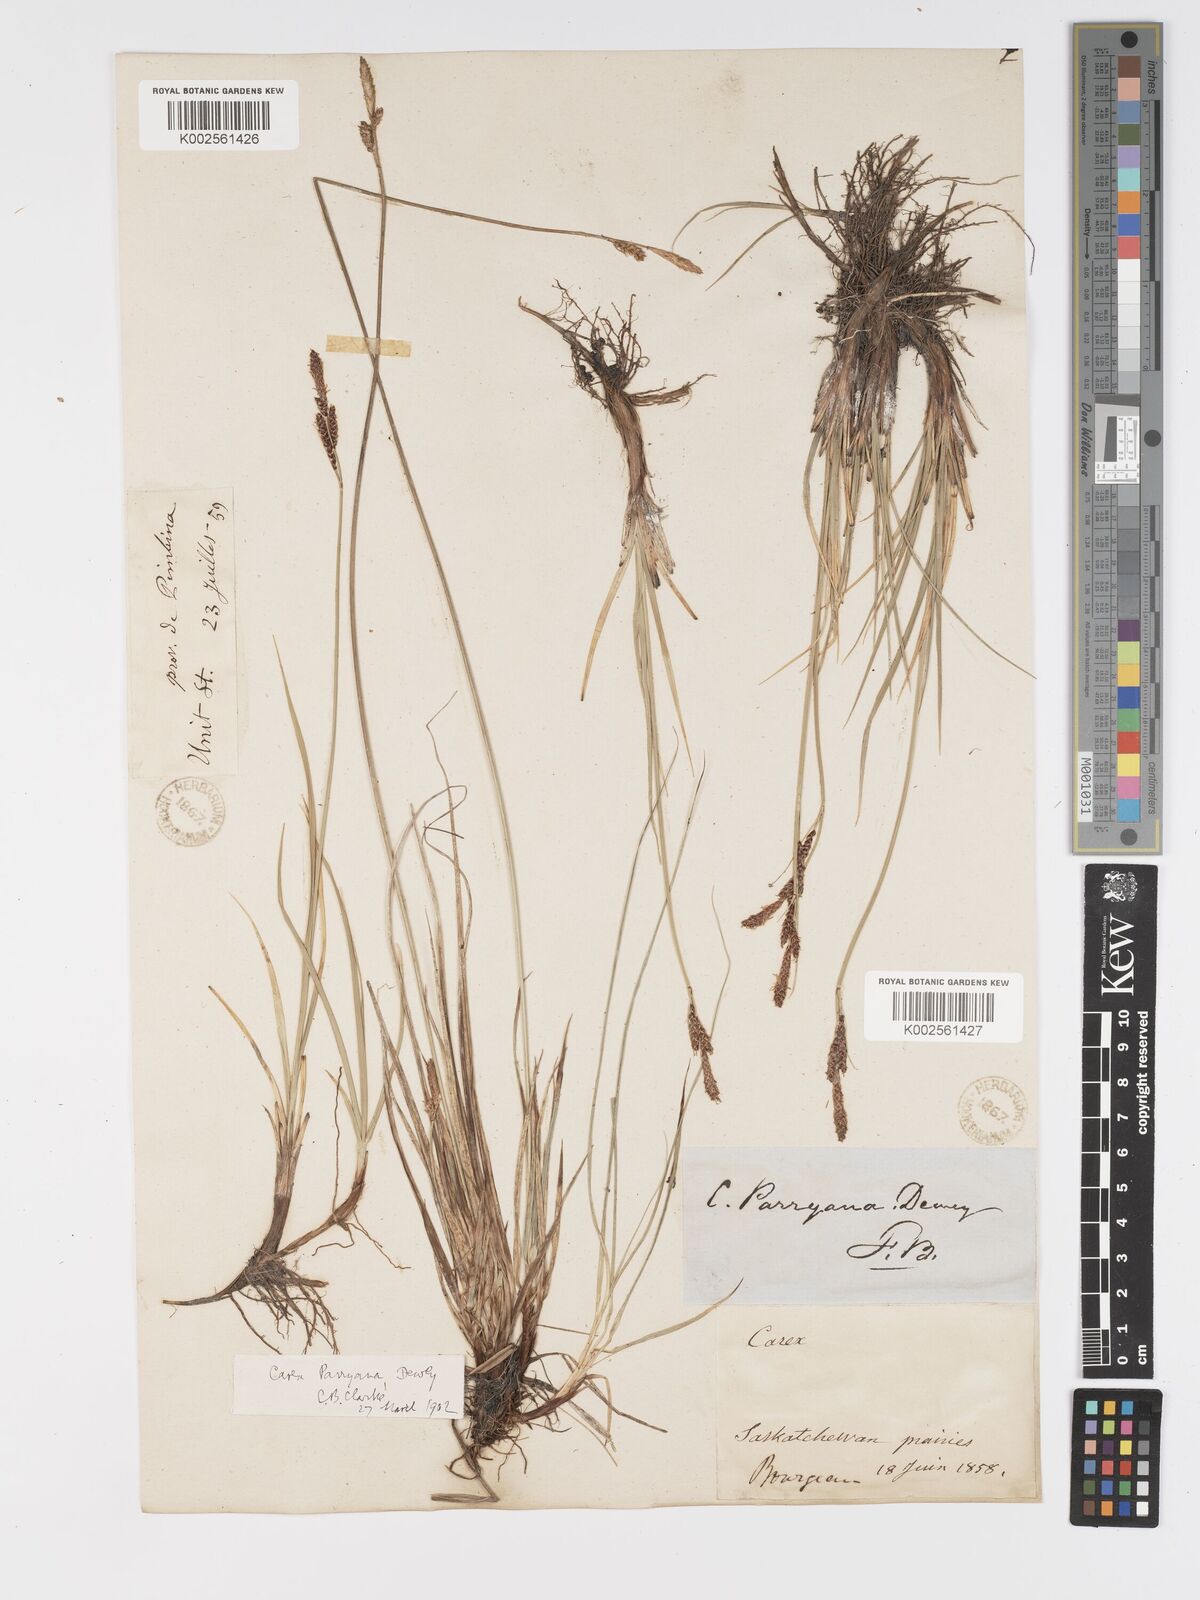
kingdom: Plantae
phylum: Tracheophyta
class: Liliopsida
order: Poales
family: Cyperaceae
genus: Carex
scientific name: Carex parryana
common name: Parry's sedge
